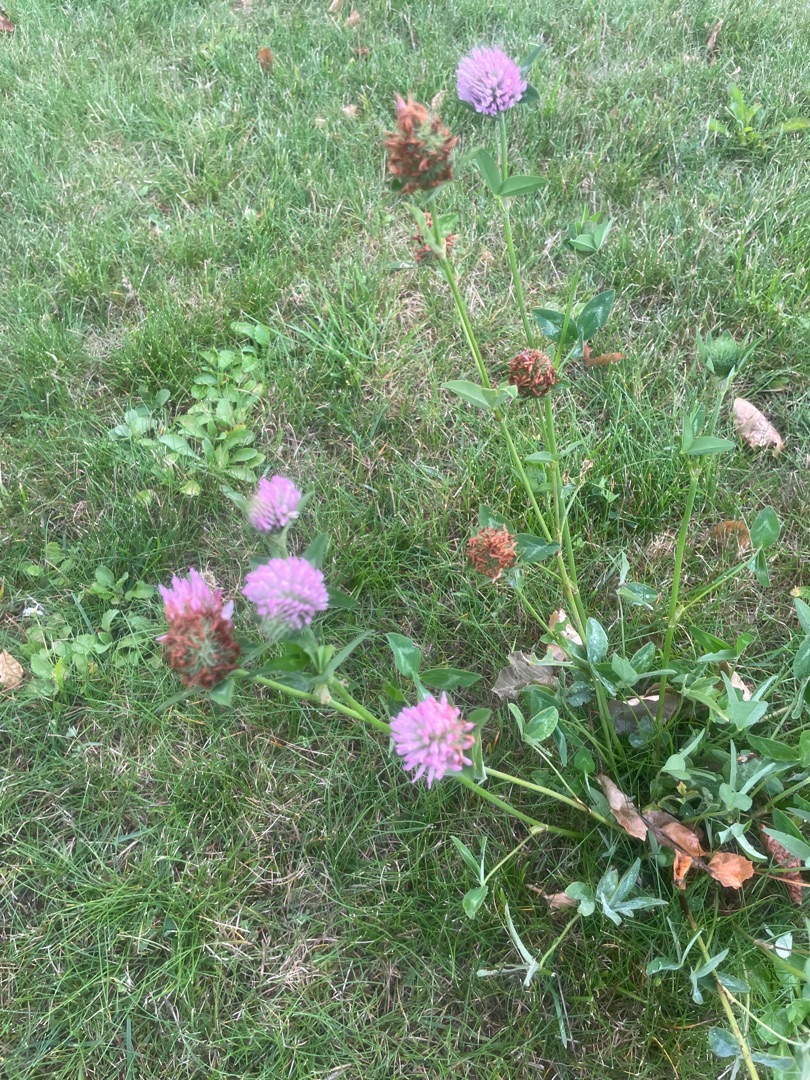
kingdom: Plantae
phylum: Tracheophyta
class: Magnoliopsida
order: Fabales
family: Fabaceae
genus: Trifolium
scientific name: Trifolium pratense
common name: Rød-kløver
